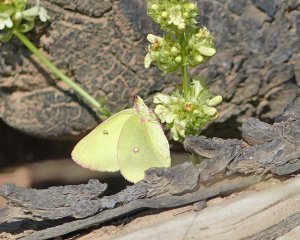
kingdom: Animalia
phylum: Arthropoda
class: Insecta
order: Lepidoptera
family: Pieridae
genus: Colias
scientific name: Colias interior
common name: Pink-edged Sulphur
